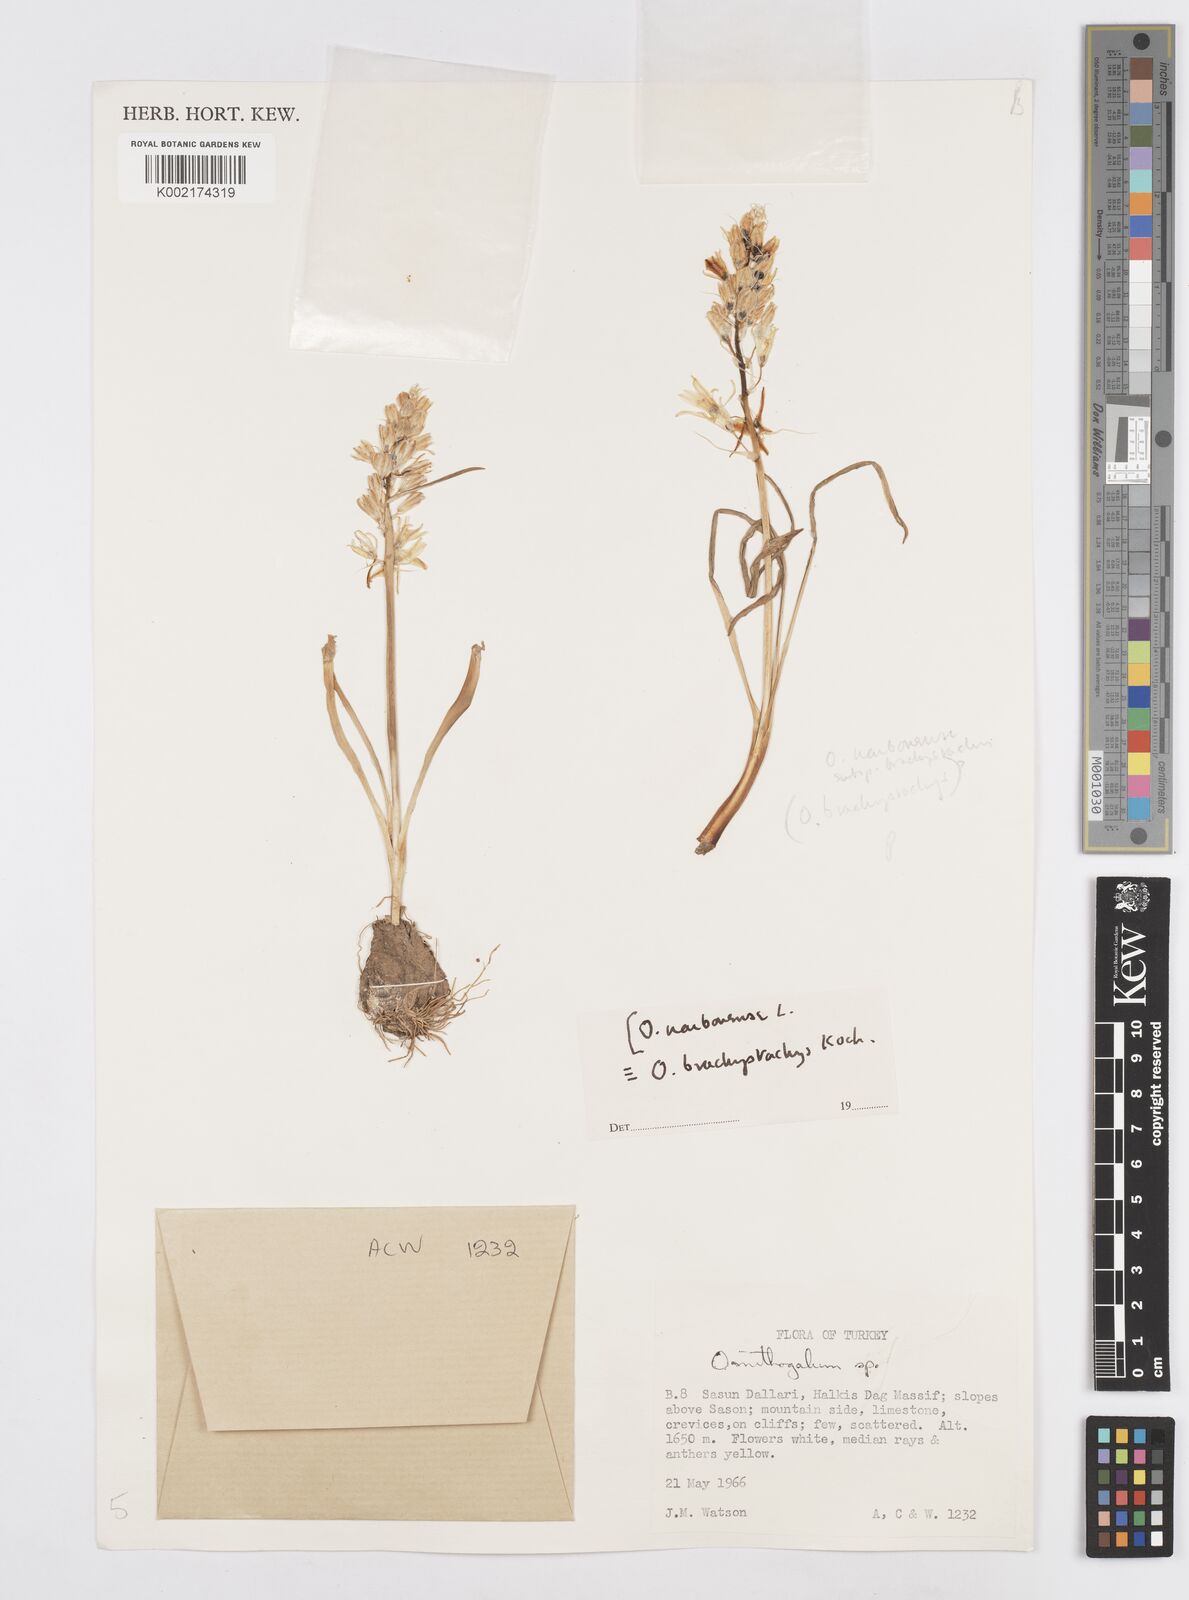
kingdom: Plantae
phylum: Tracheophyta
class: Liliopsida
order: Asparagales
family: Asparagaceae
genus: Ornithogalum
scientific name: Ornithogalum narbonense
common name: Bath-asparagus
